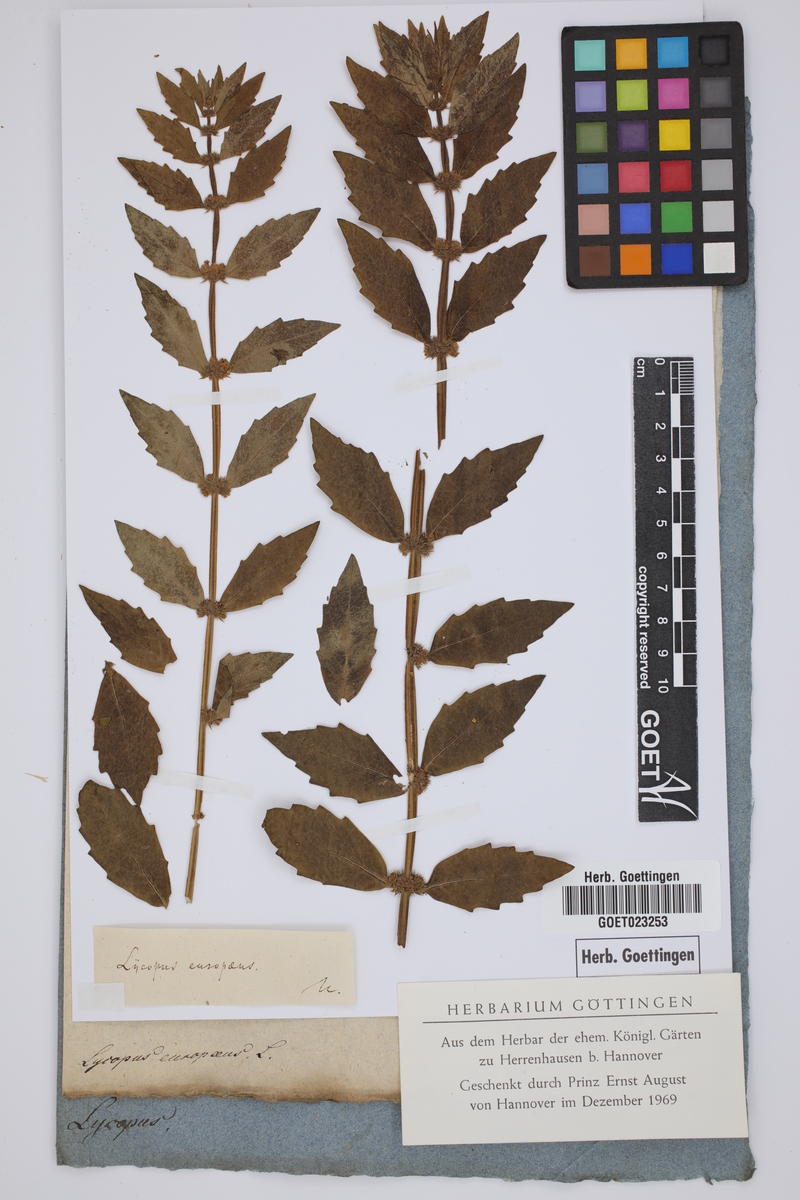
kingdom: Plantae
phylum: Tracheophyta
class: Magnoliopsida
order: Lamiales
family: Lamiaceae
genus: Lycopus
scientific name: Lycopus europaeus
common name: European bugleweed
